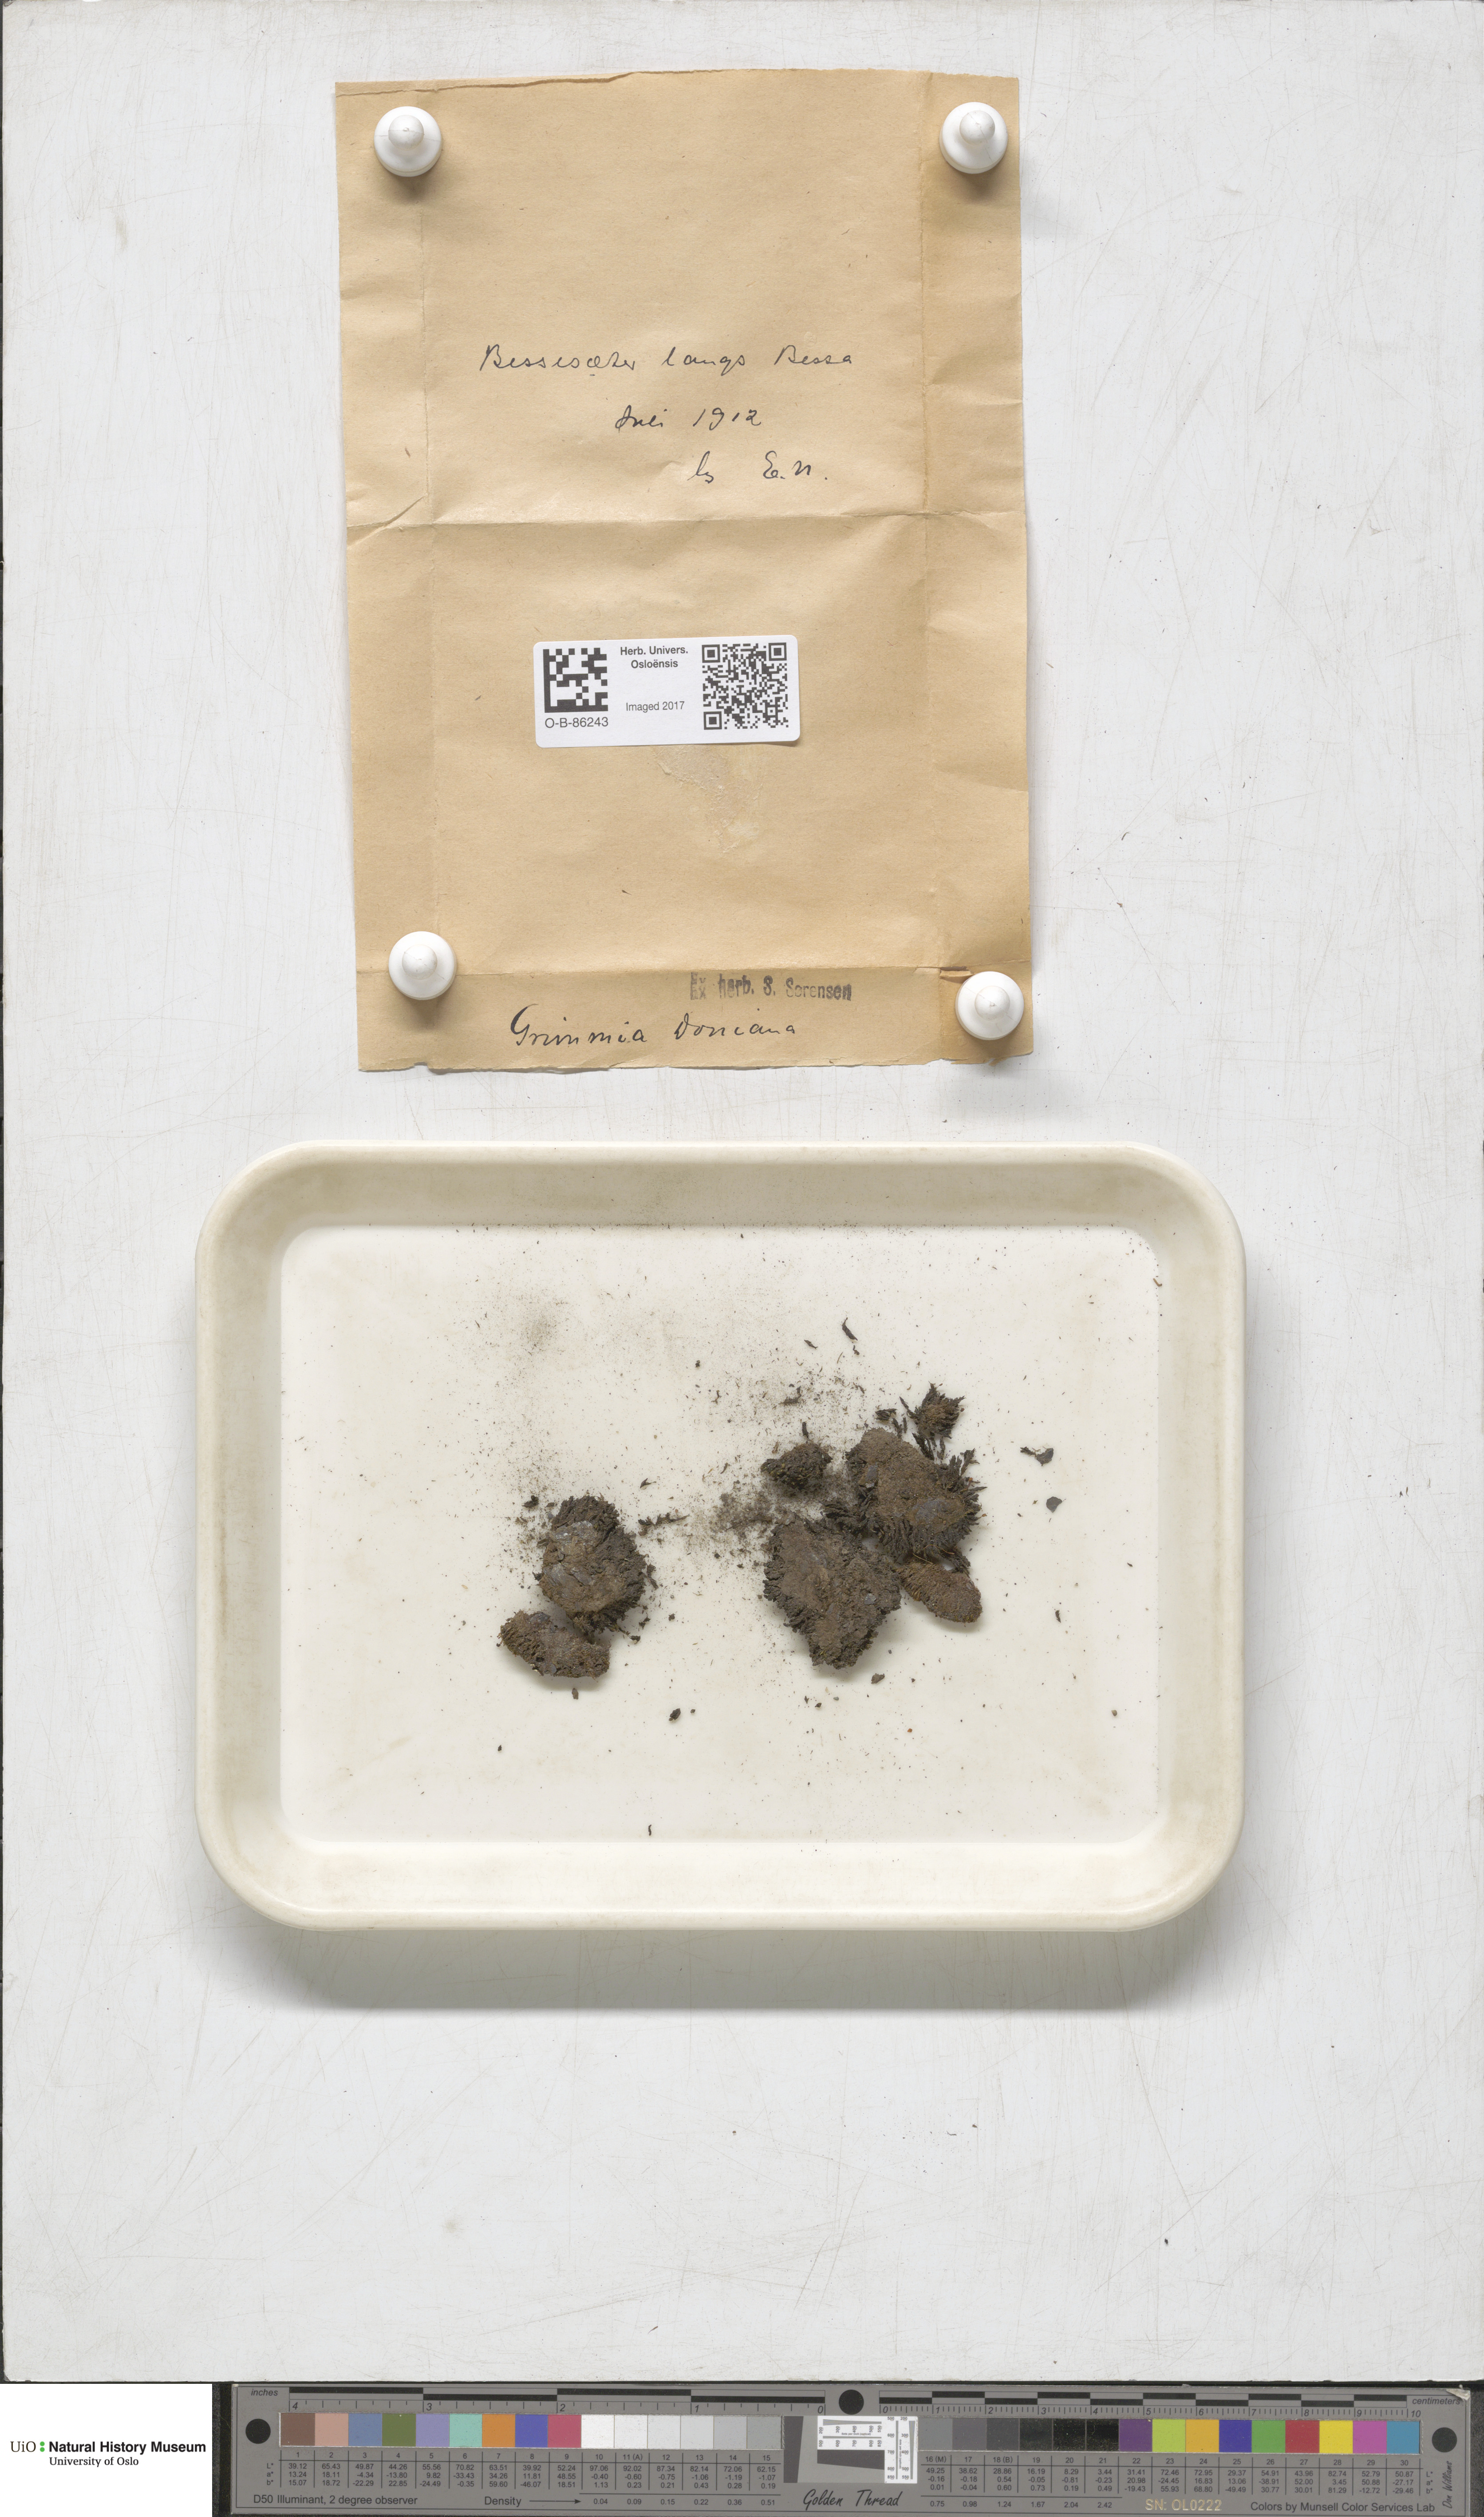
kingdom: Plantae
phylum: Bryophyta
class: Bryopsida
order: Grimmiales
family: Grimmiaceae
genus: Grimmia
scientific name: Grimmia donniana
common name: Donn's grimmia
